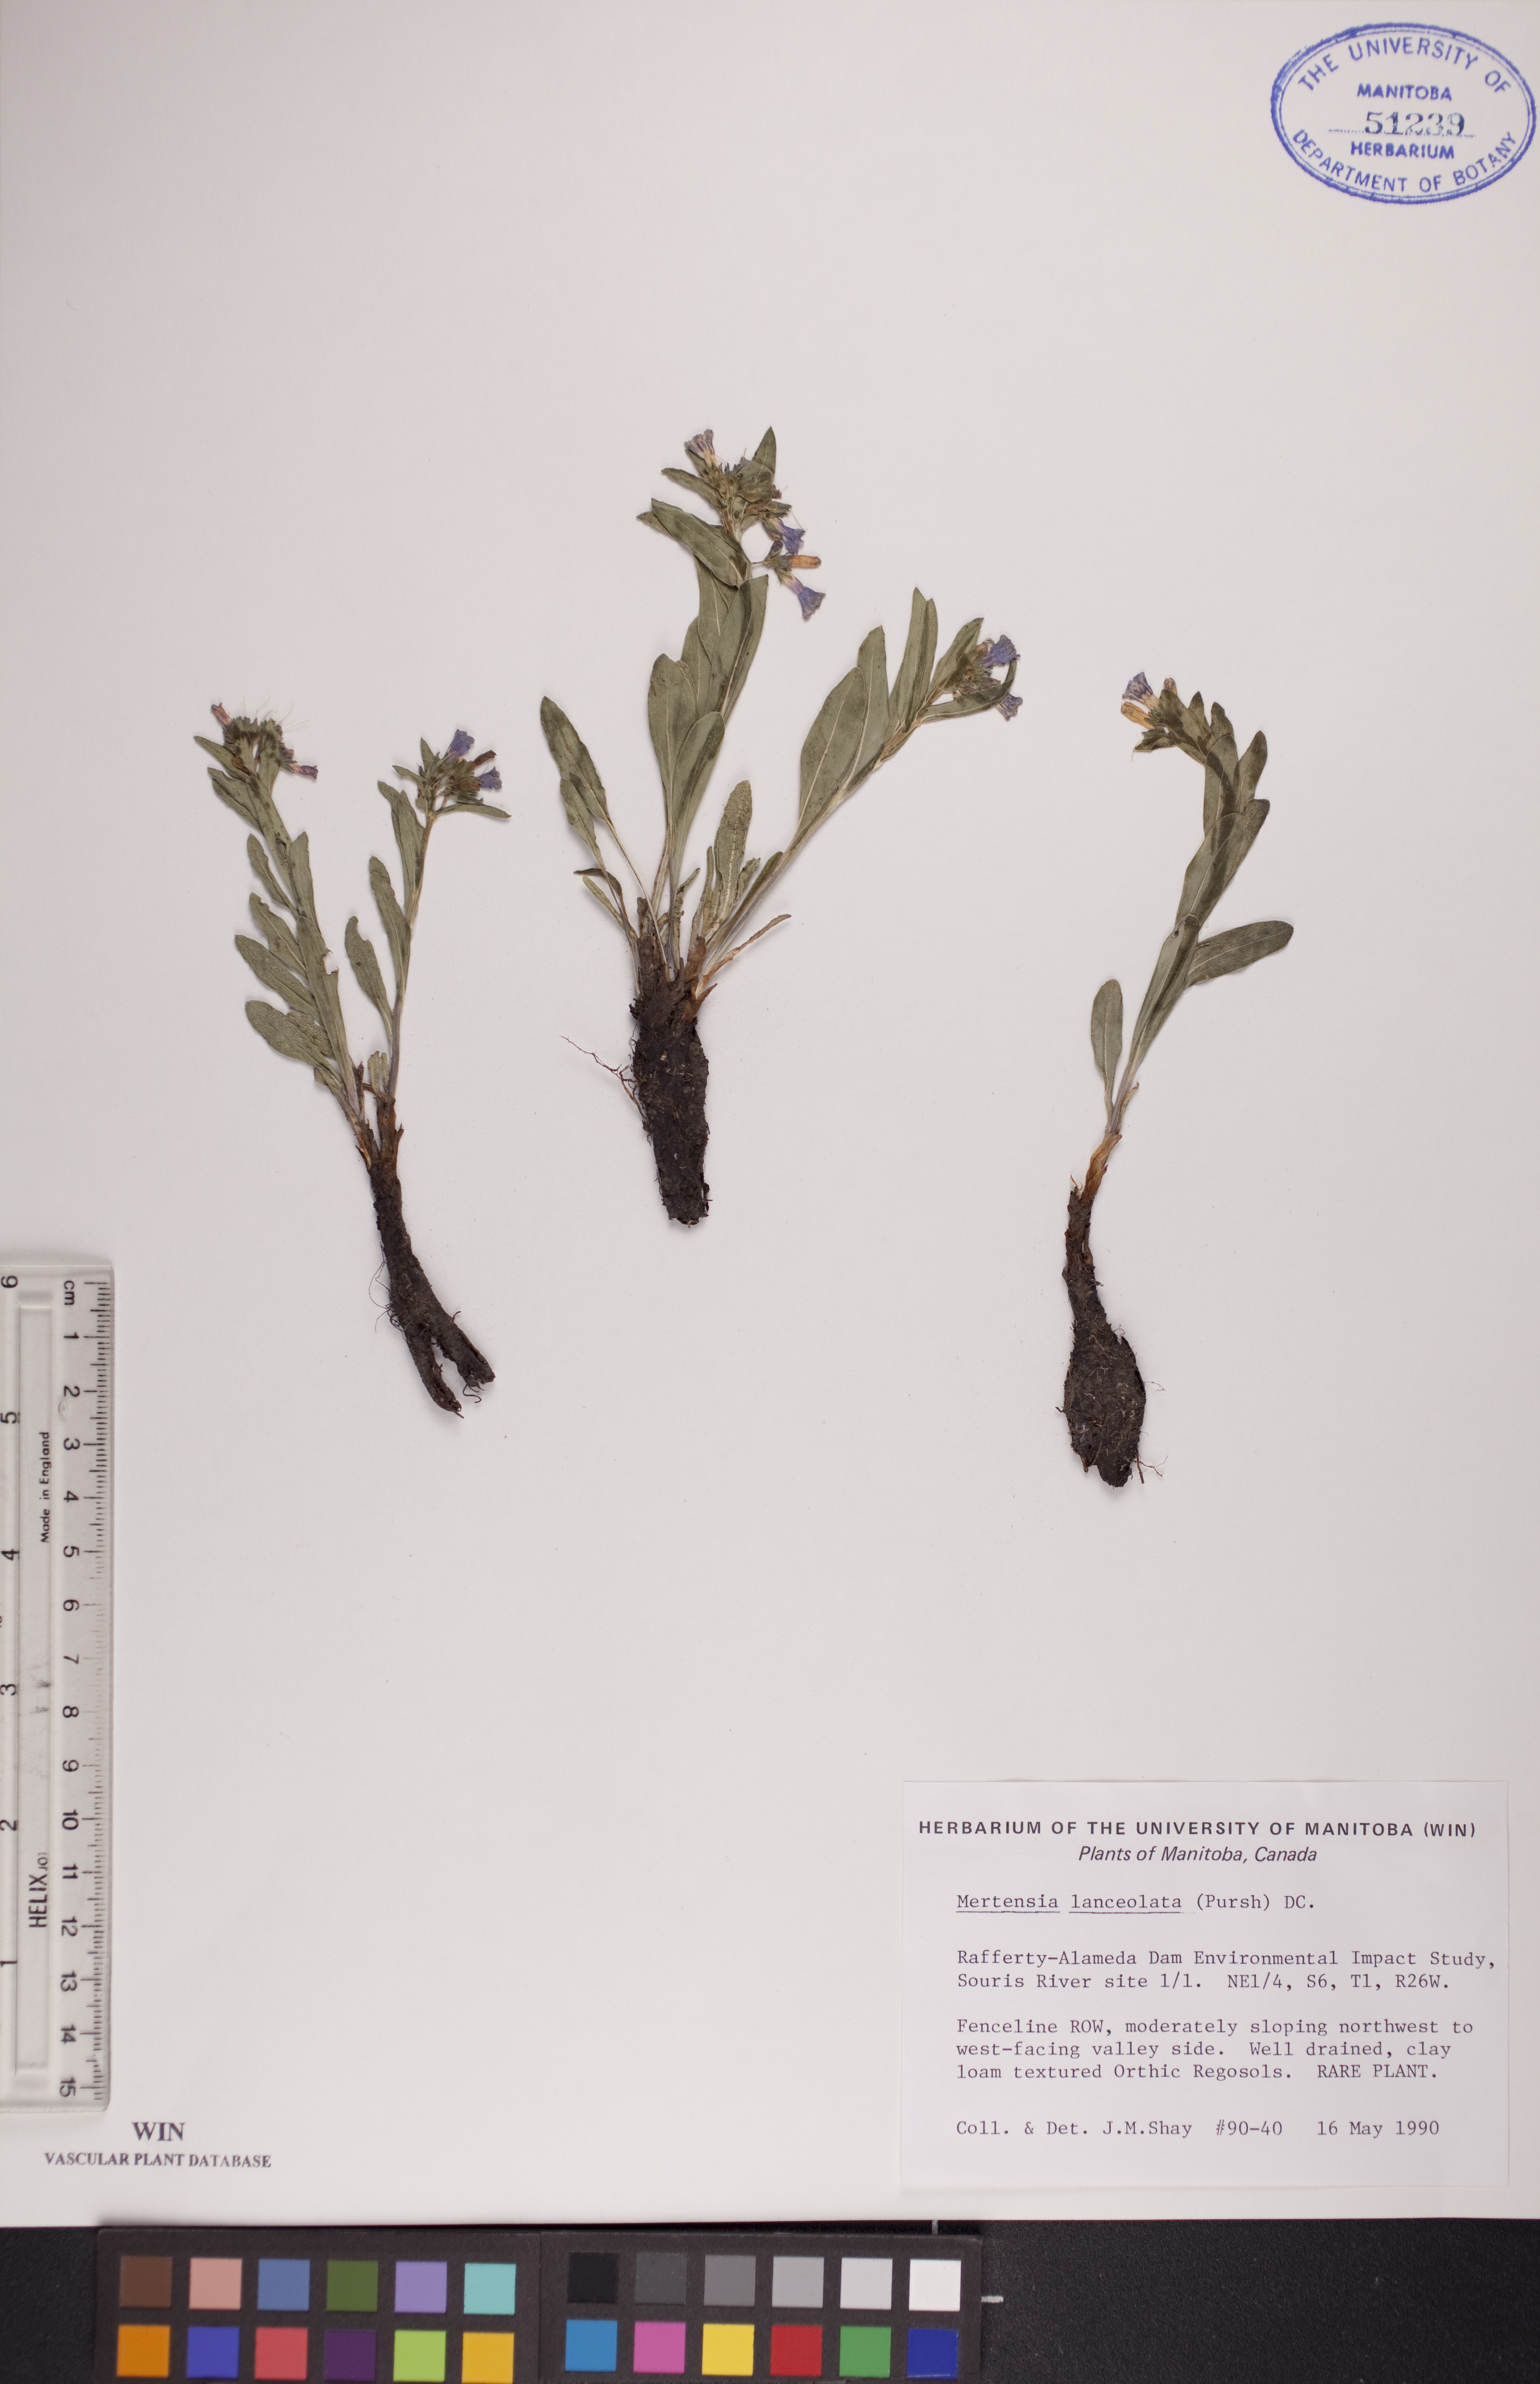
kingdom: Plantae
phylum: Tracheophyta
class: Magnoliopsida
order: Boraginales
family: Boraginaceae
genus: Mertensia
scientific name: Mertensia lanceolata
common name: Lance-leaved bluebells
